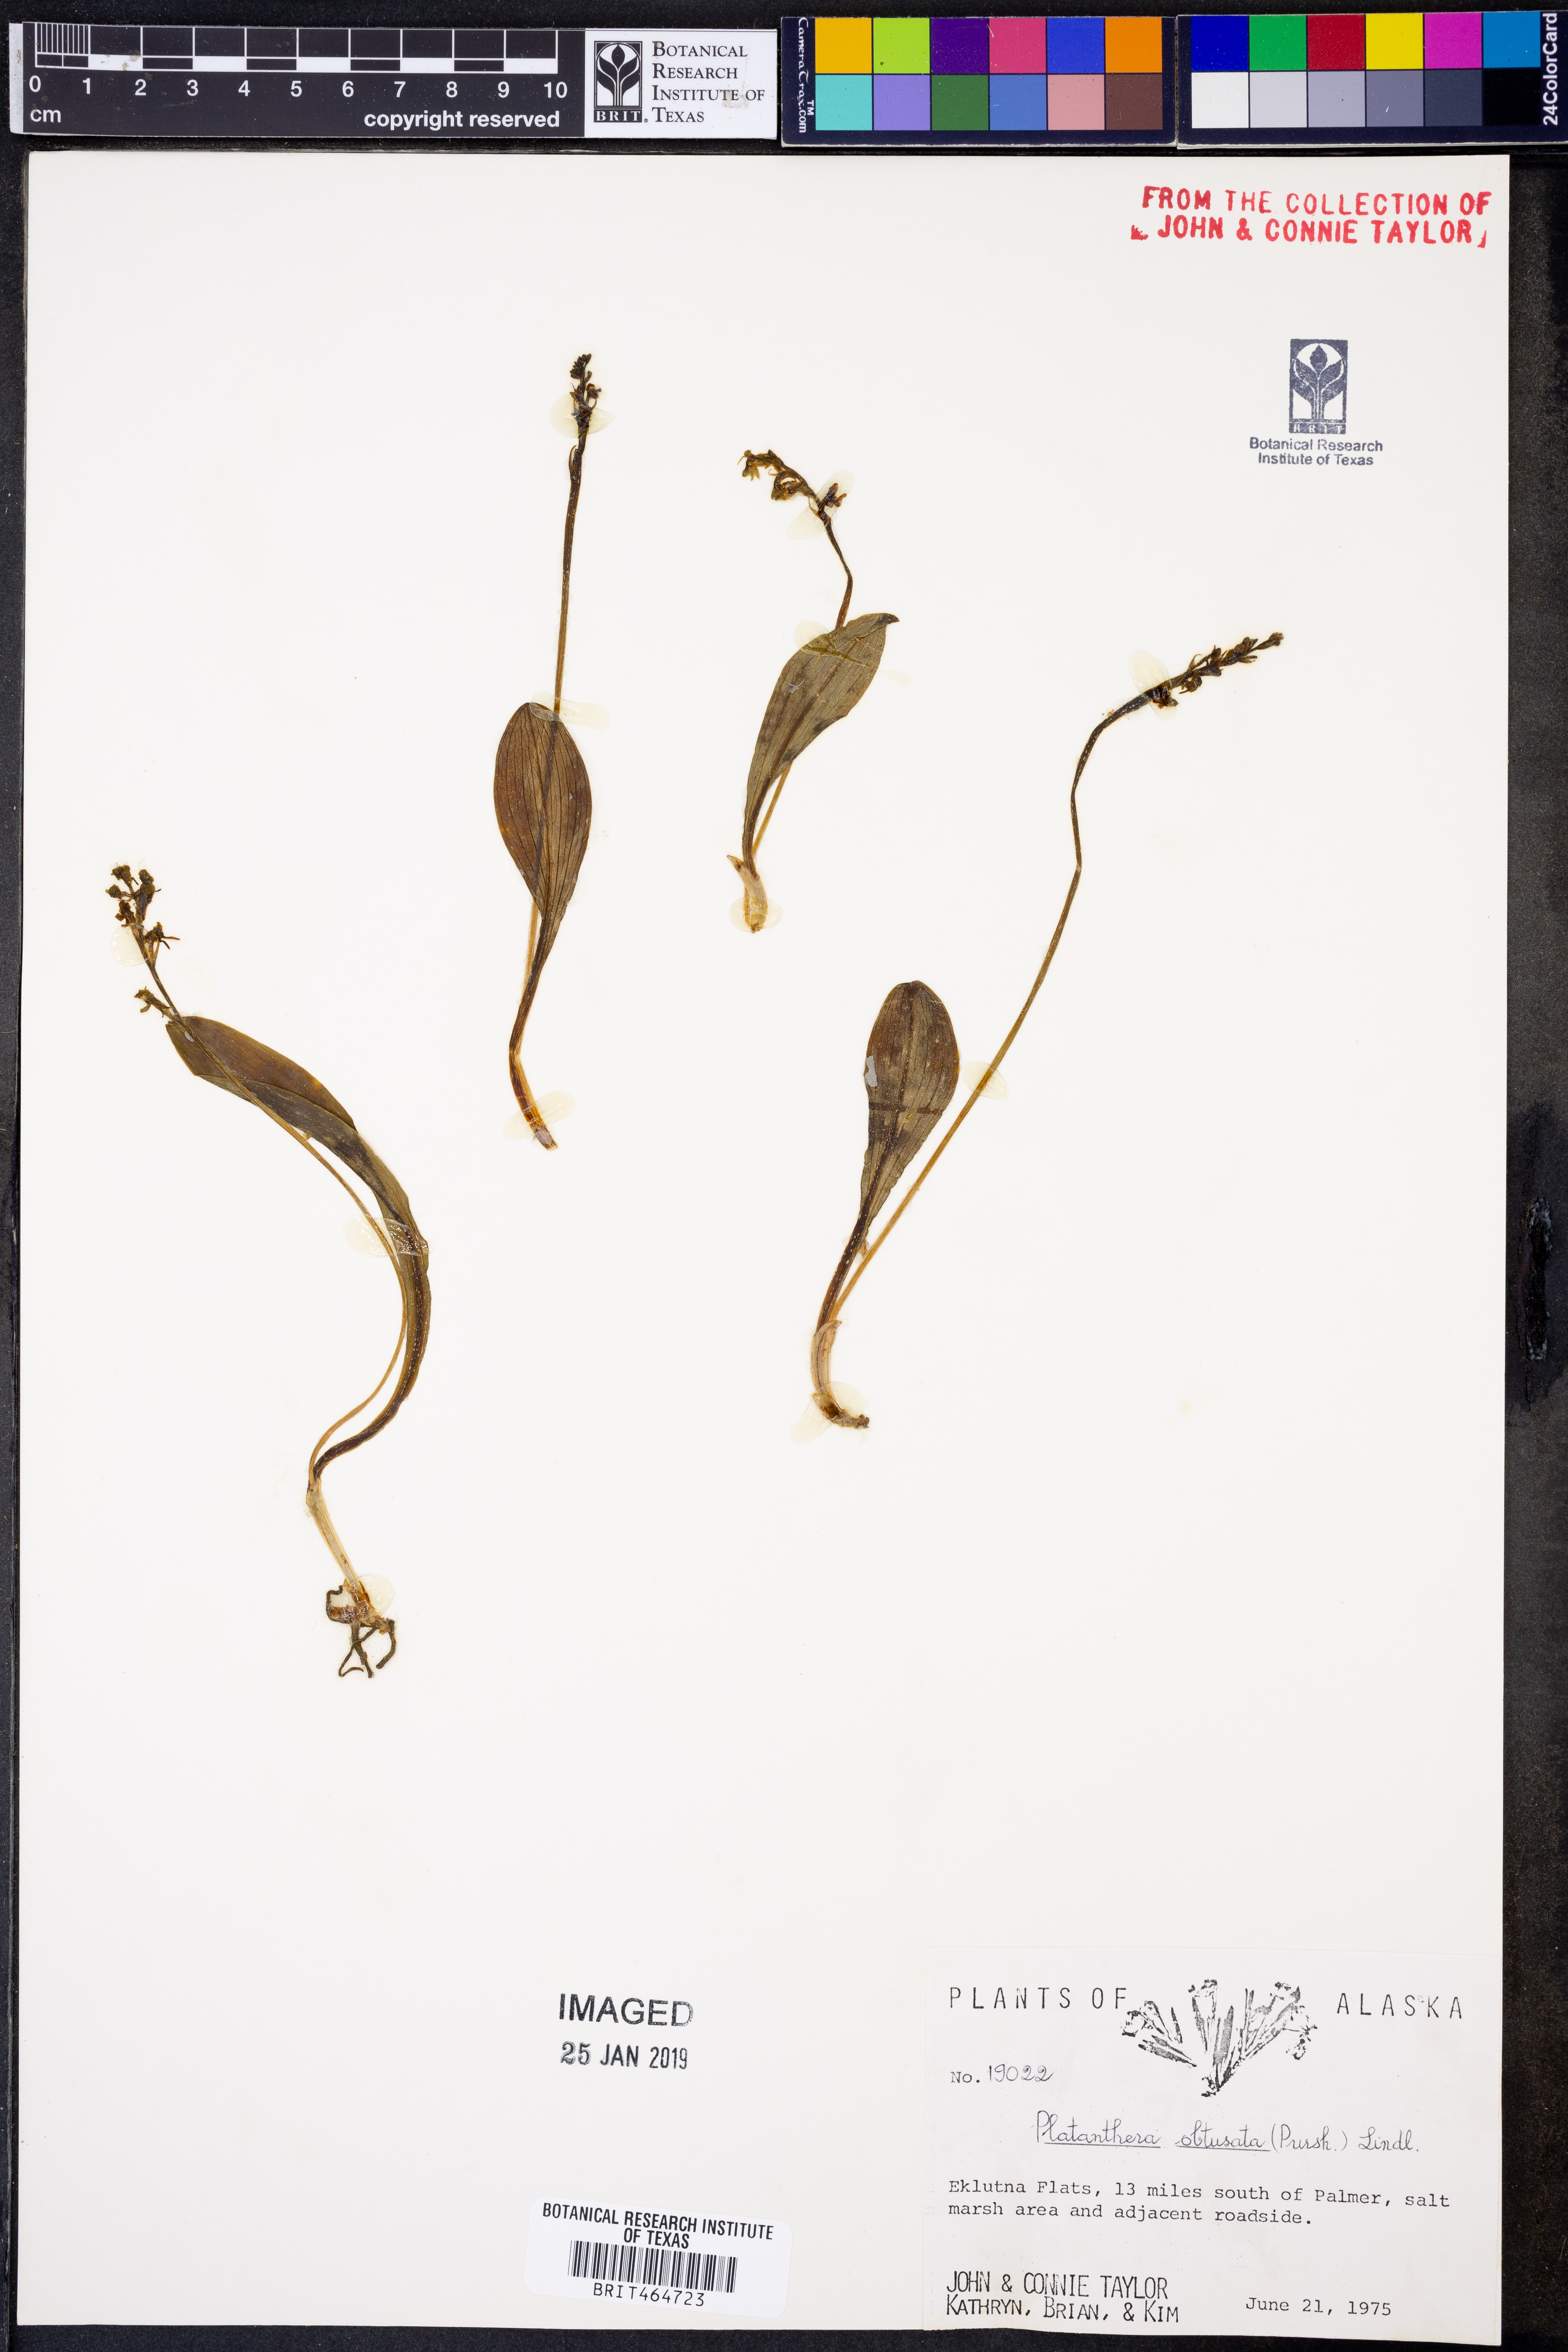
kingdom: Plantae
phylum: Tracheophyta
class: Liliopsida
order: Asparagales
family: Orchidaceae
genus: Platanthera
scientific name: Platanthera obtusata
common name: Blunt bog orchid
